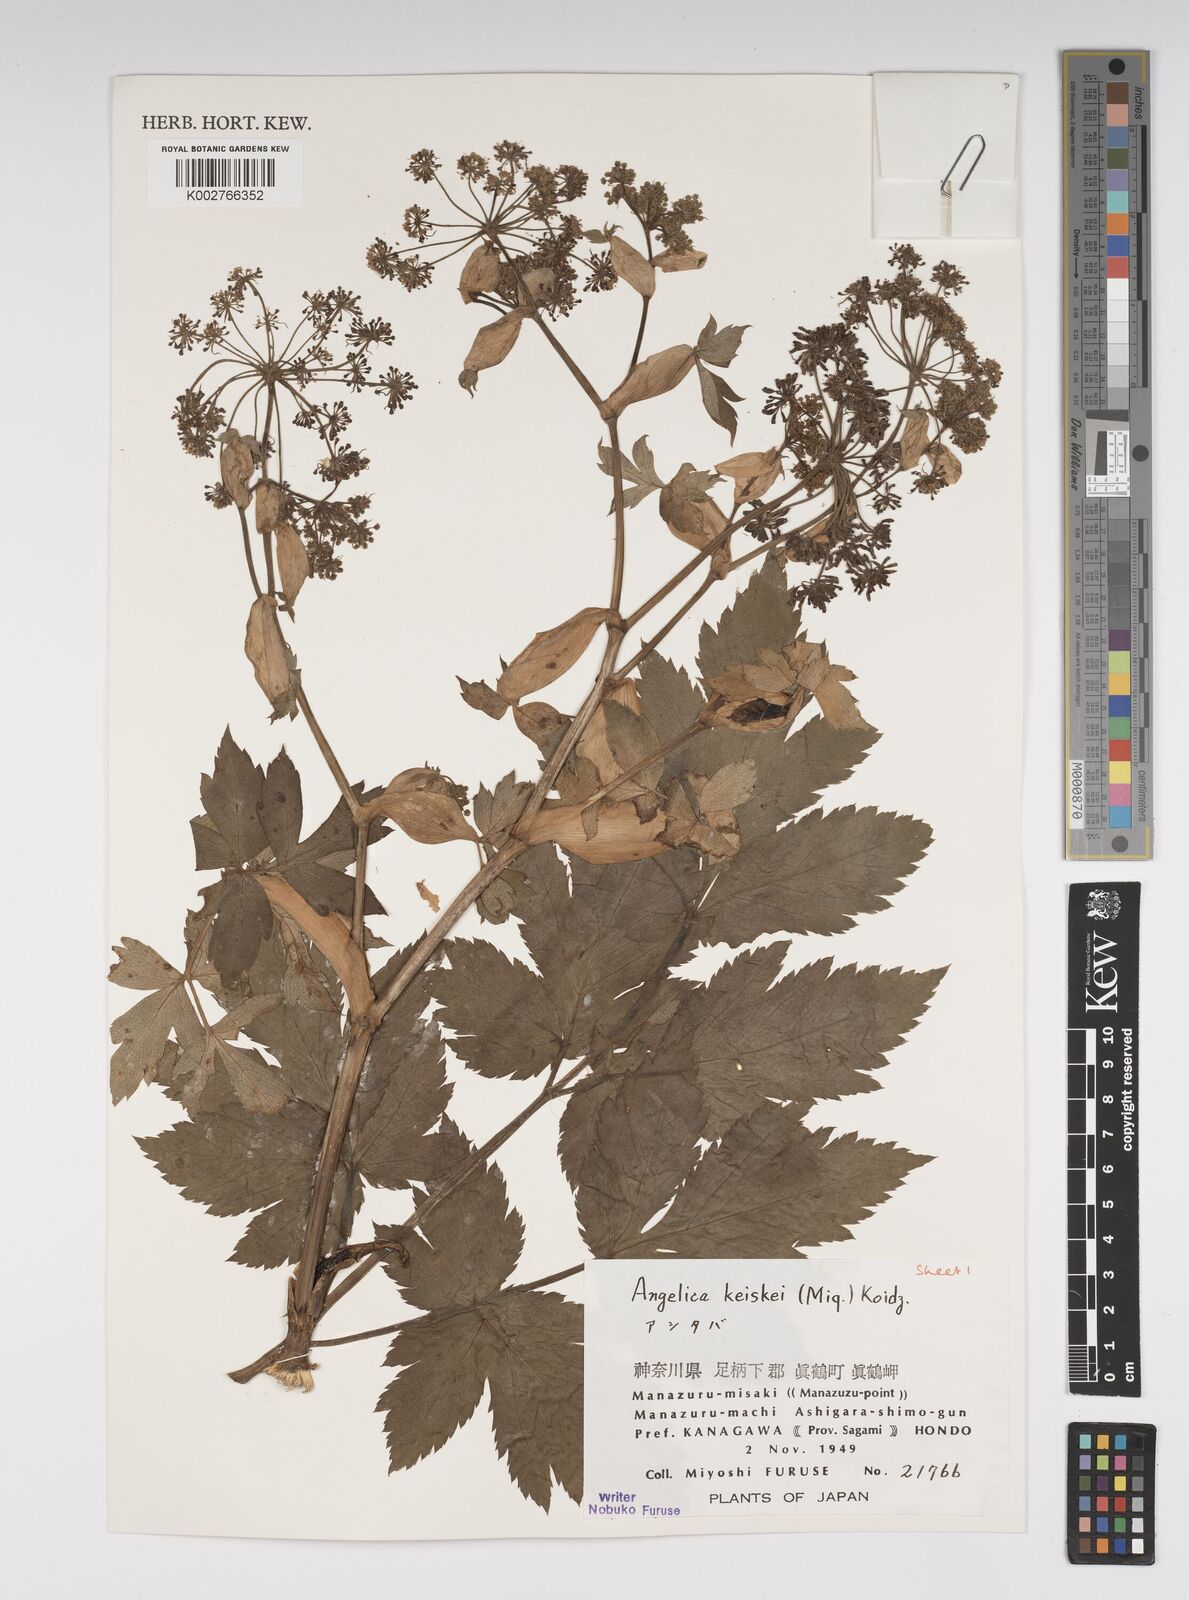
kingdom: Plantae
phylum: Tracheophyta
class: Magnoliopsida
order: Apiales
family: Apiaceae
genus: Angelica
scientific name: Angelica keiskei
